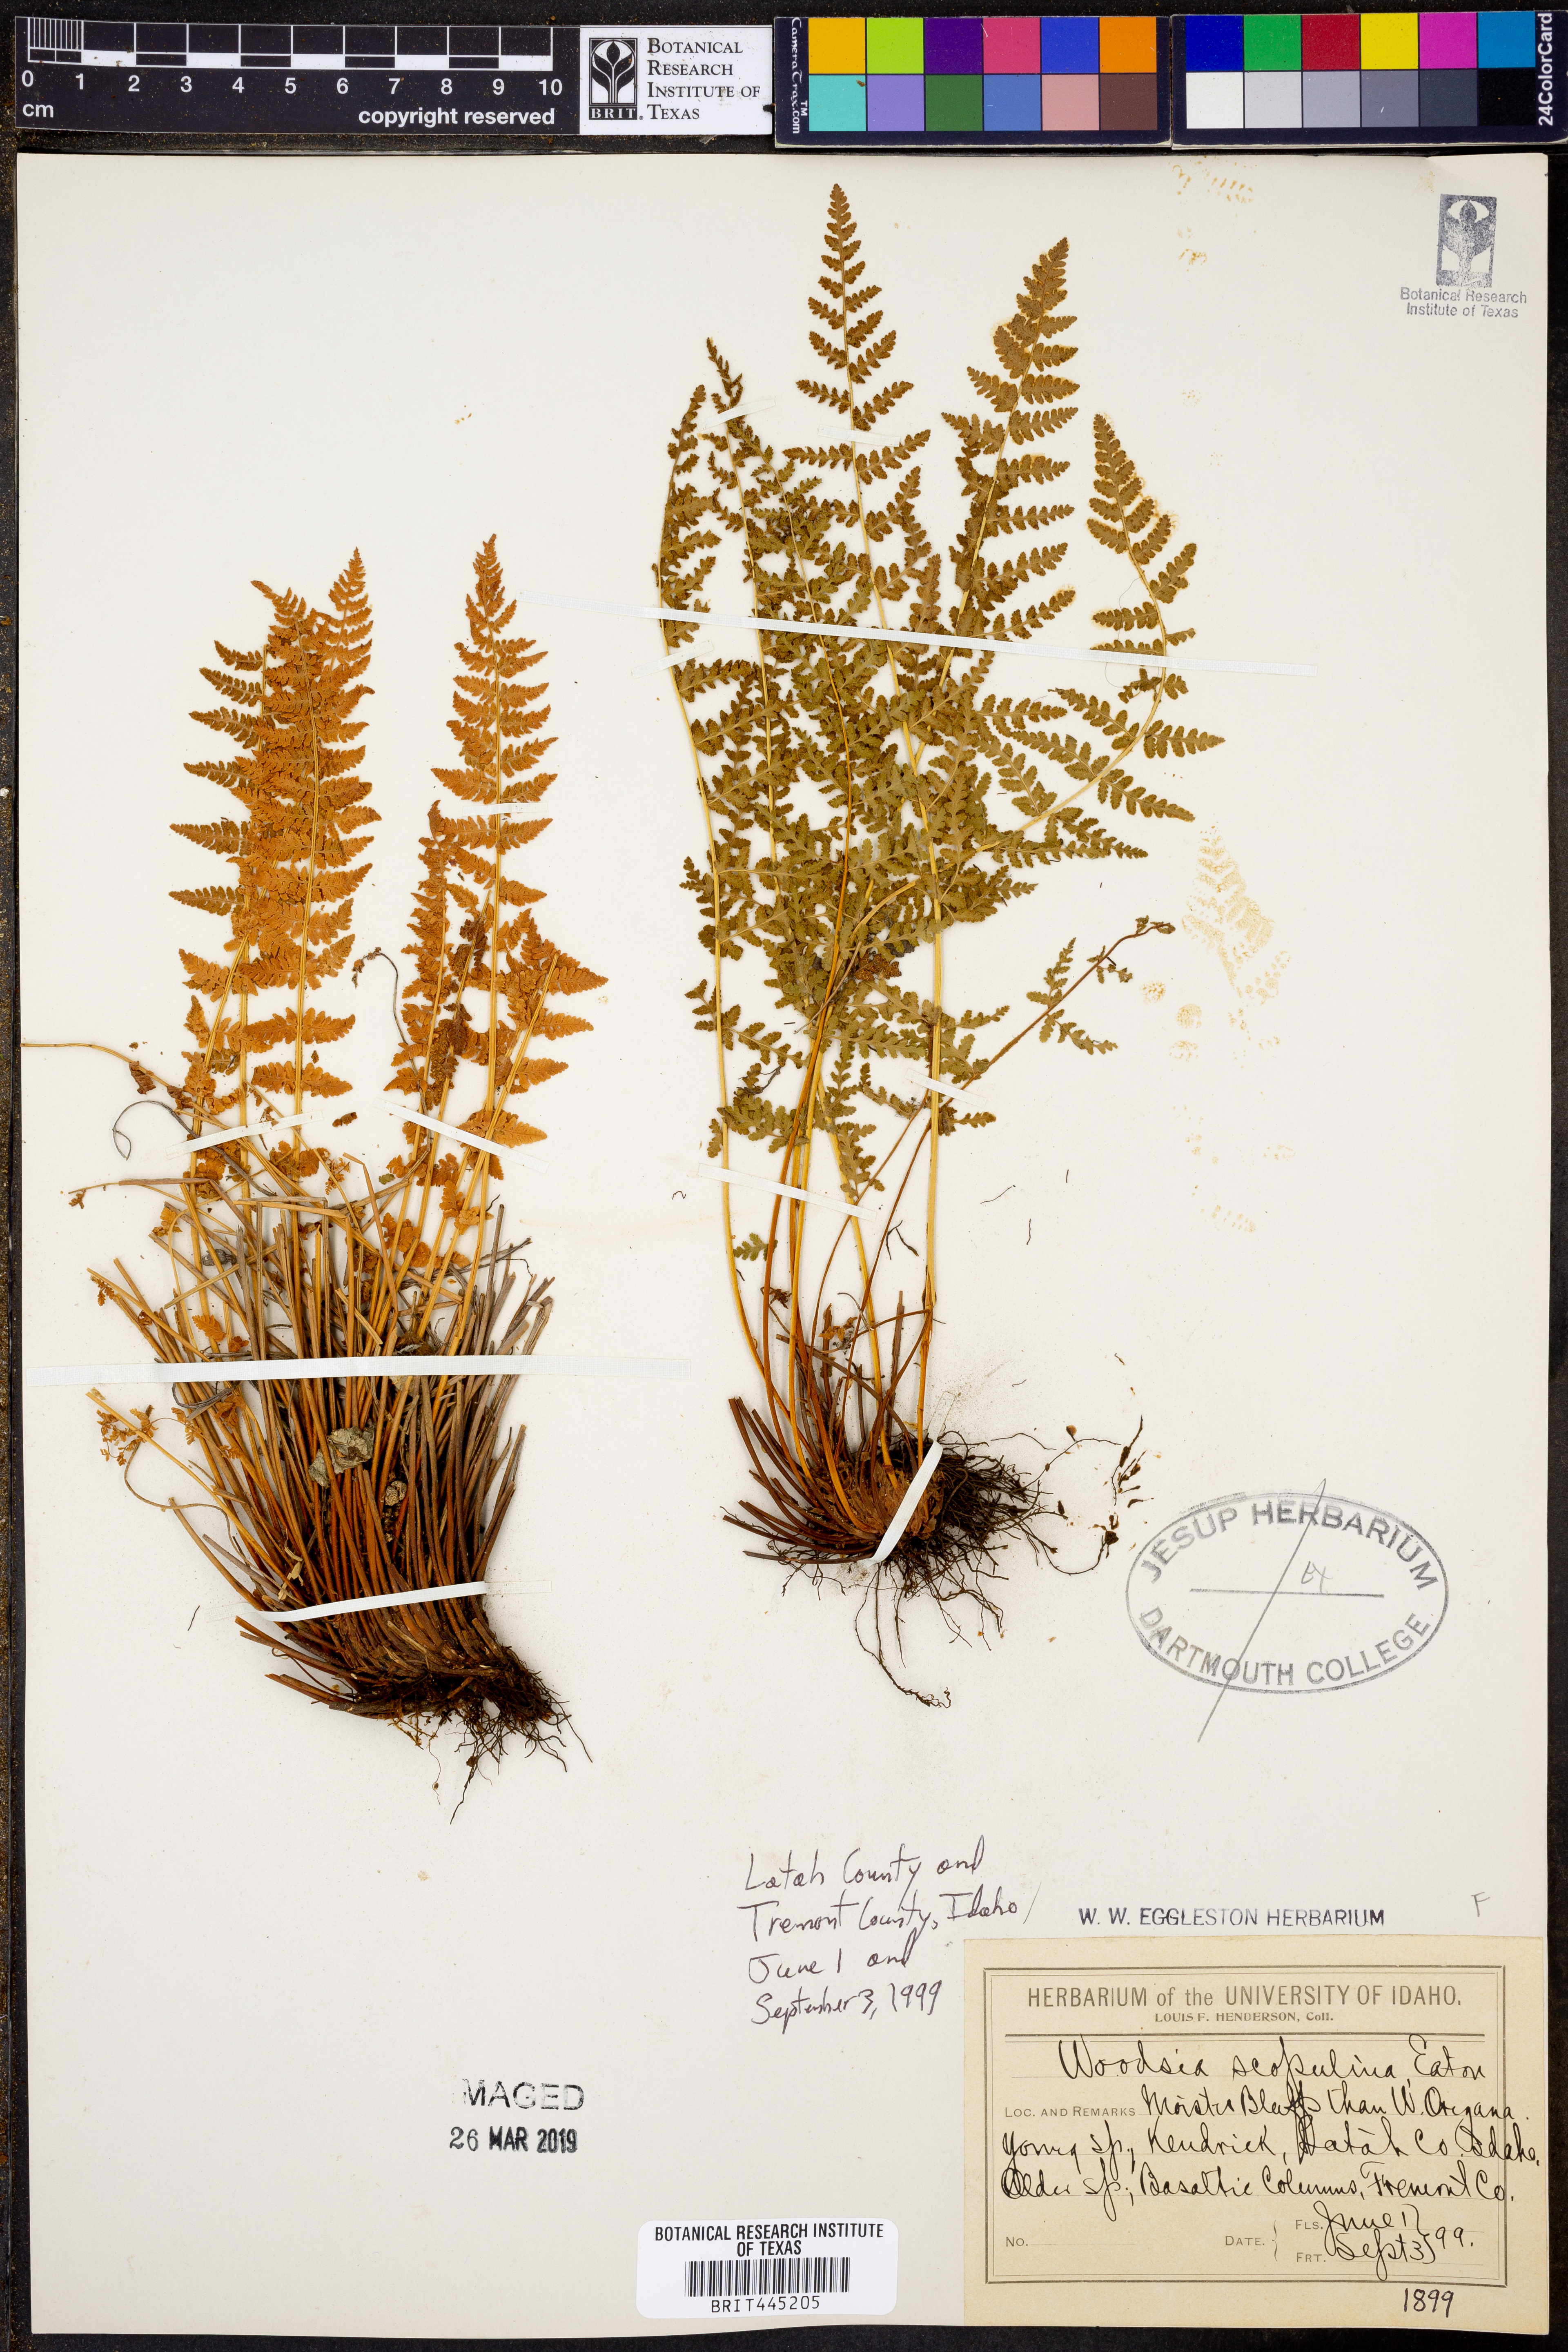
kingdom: Plantae
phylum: Tracheophyta
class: Polypodiopsida
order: Polypodiales
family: Woodsiaceae
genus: Physematium
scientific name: Physematium scopulinum
